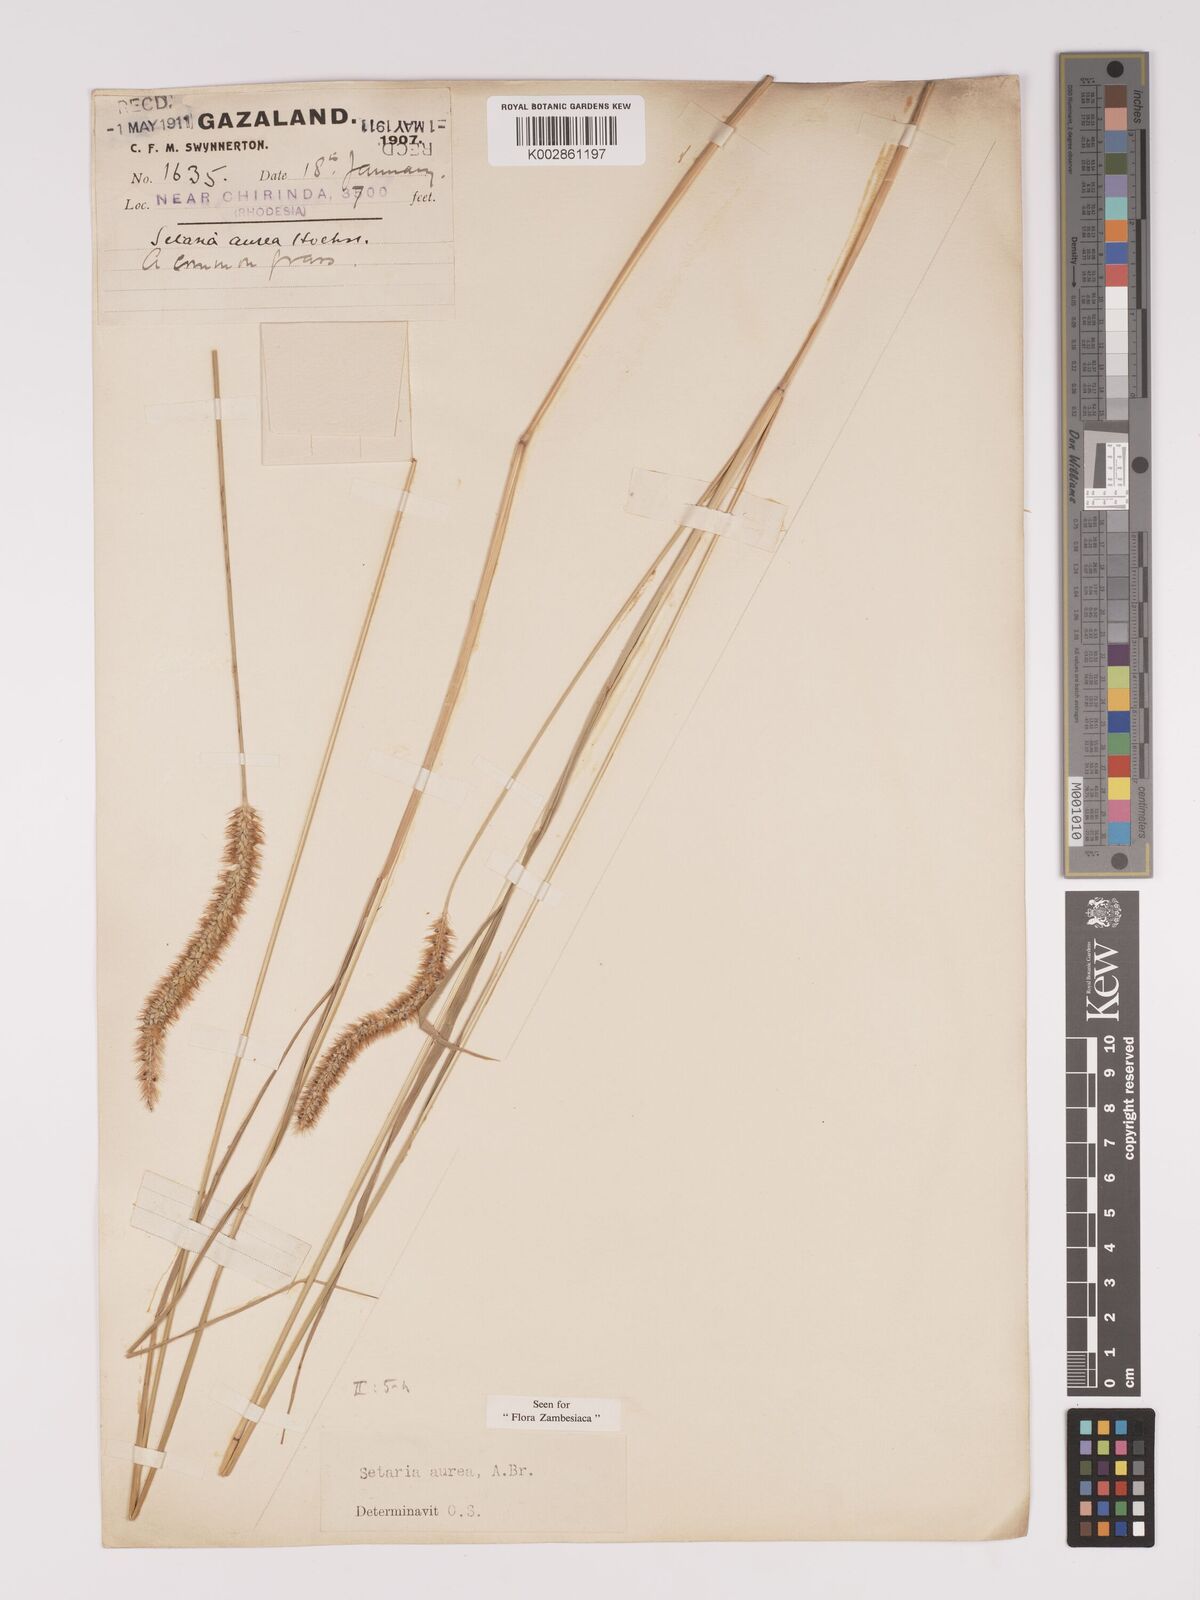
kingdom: Plantae
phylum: Tracheophyta
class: Liliopsida
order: Poales
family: Poaceae
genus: Setaria
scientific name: Setaria sphacelata
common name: African bristlegrass
